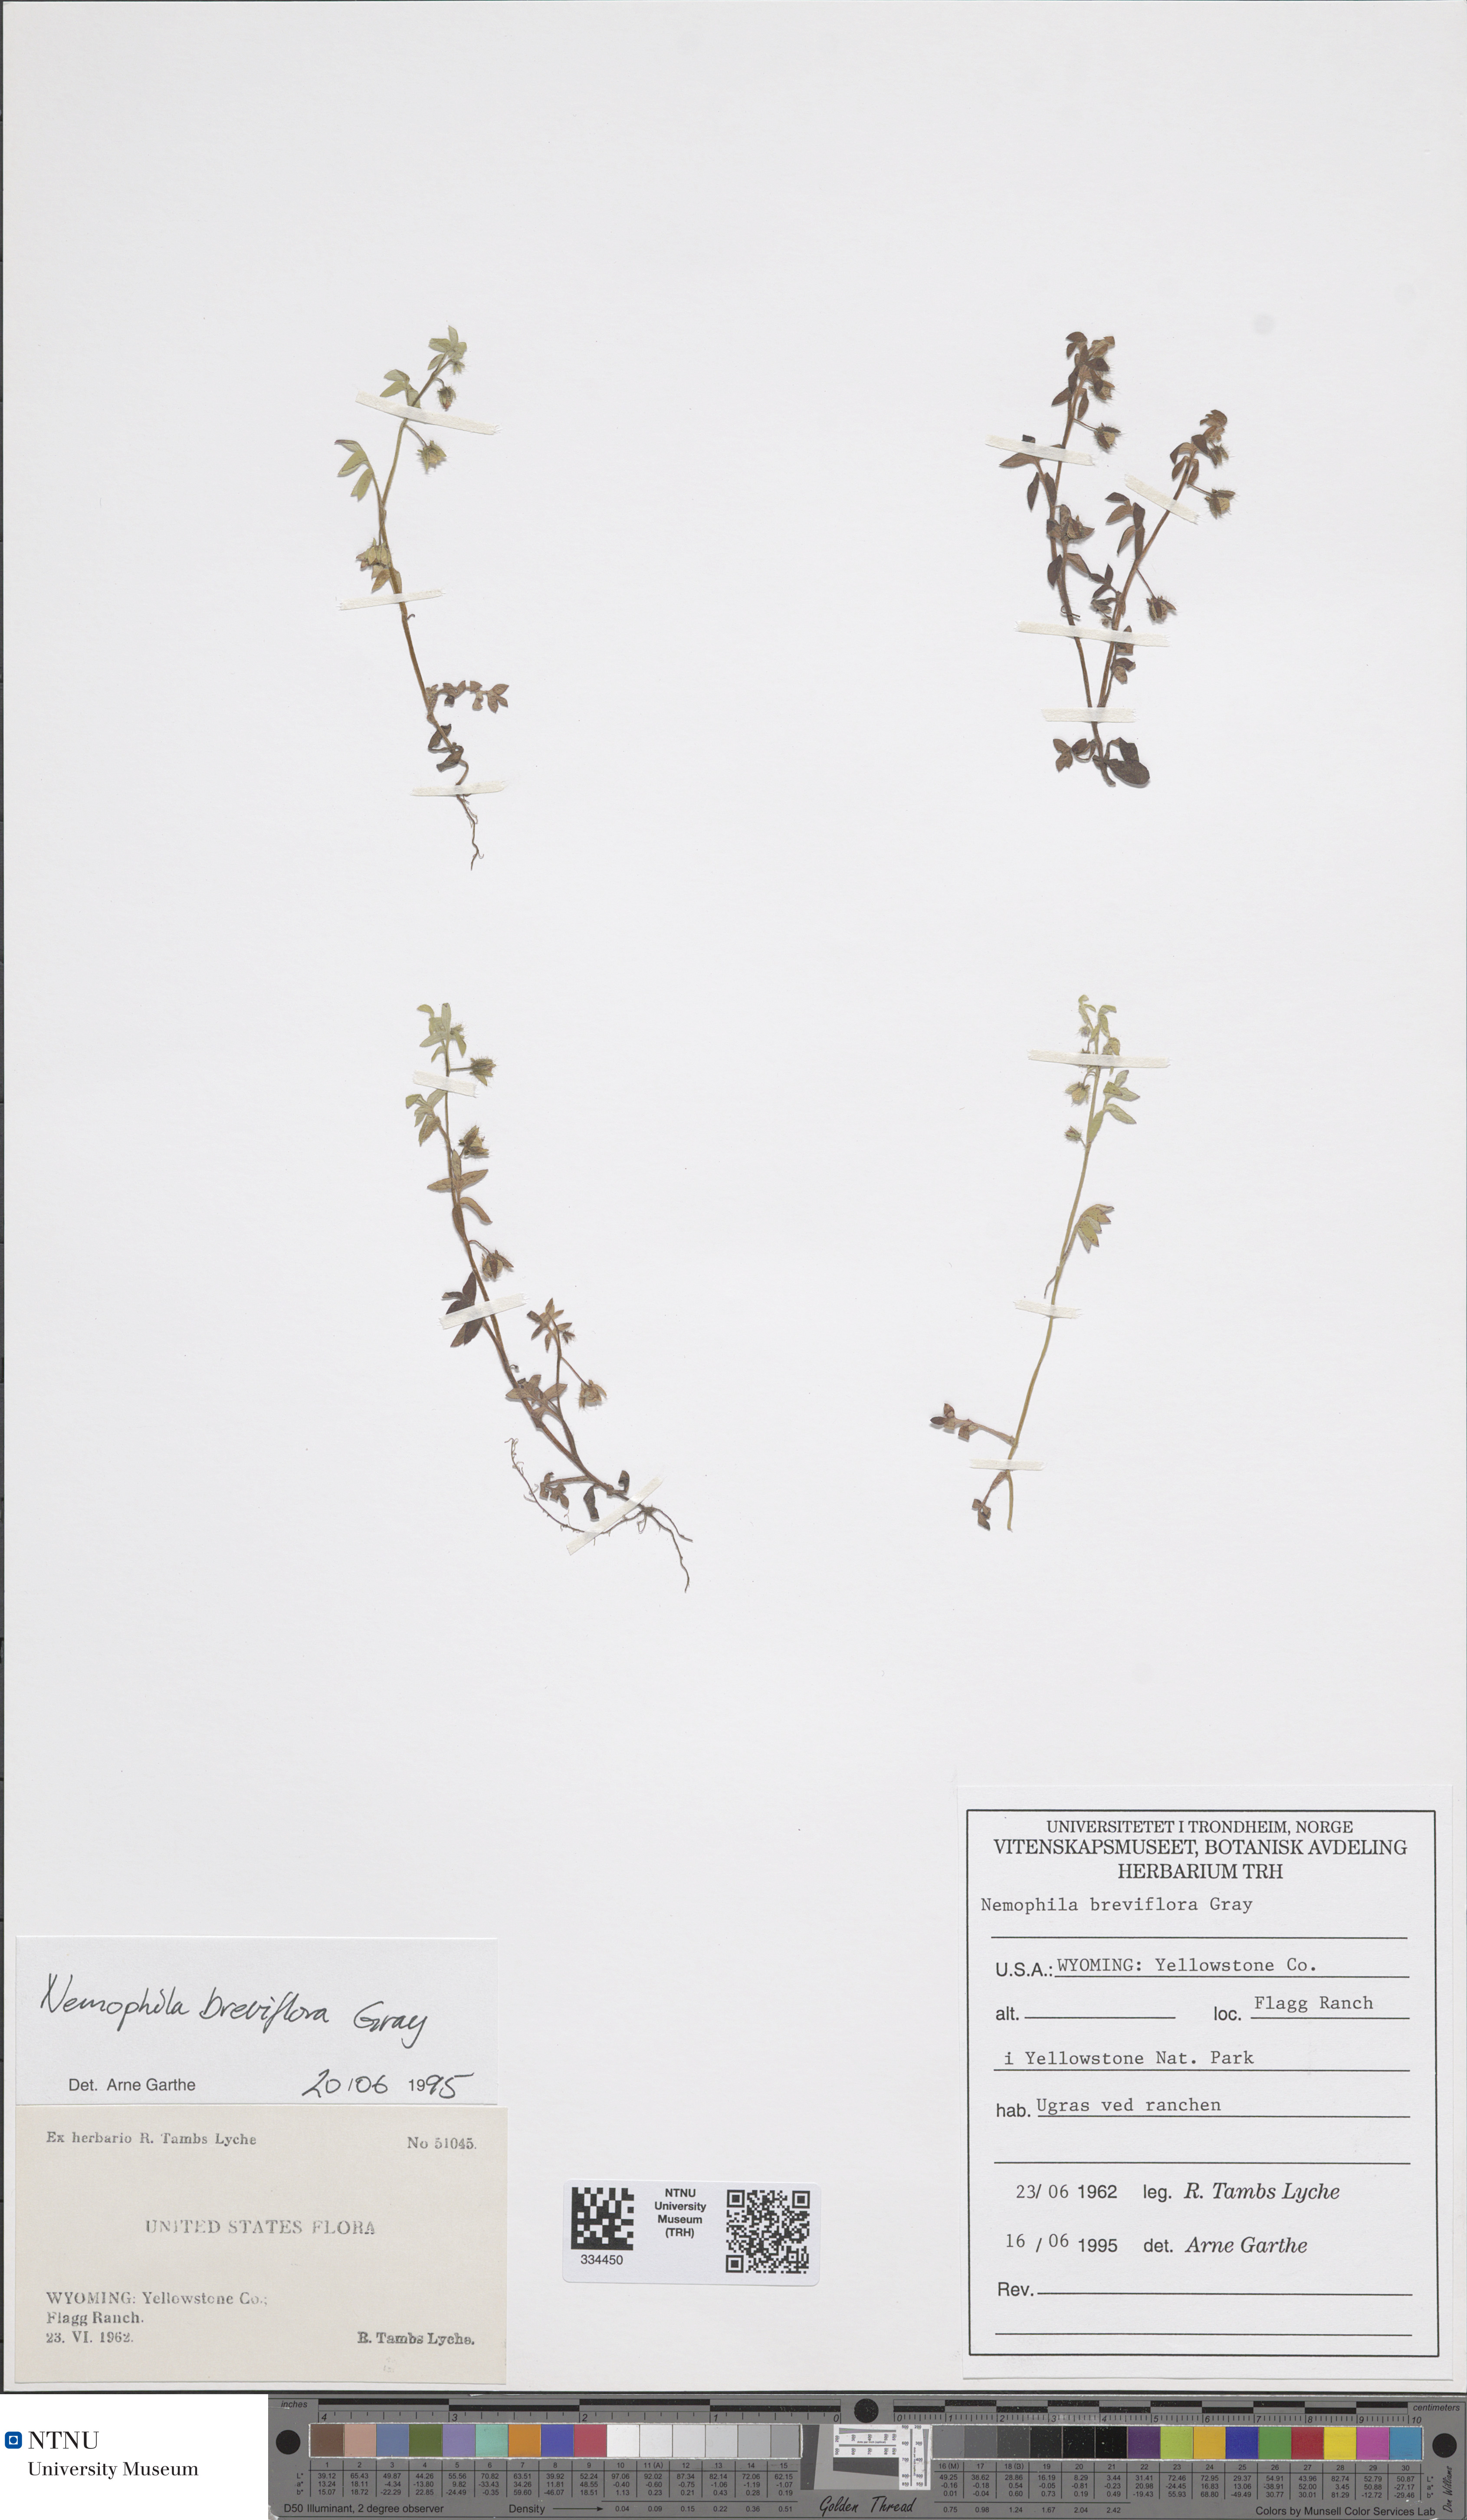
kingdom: Plantae
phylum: Tracheophyta
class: Magnoliopsida
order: Boraginales
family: Hydrophyllaceae
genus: Nemophila
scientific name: Nemophila breviflora
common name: Great basin baby-blue-eyes
